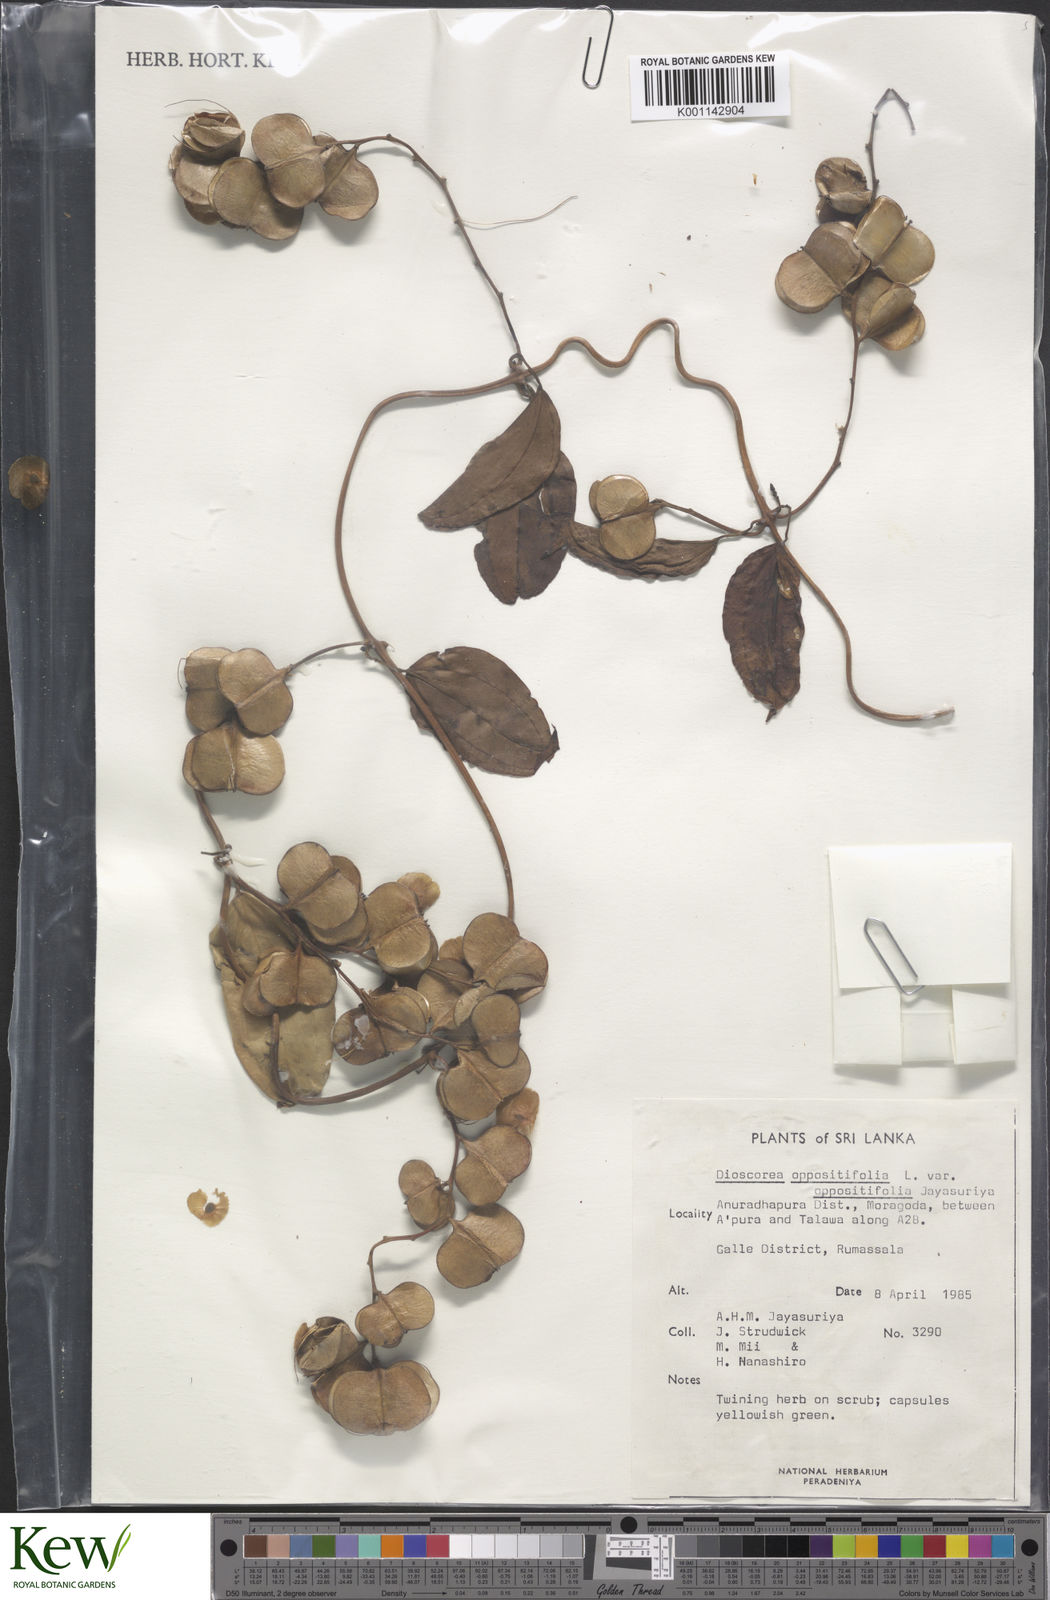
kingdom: Plantae
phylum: Tracheophyta
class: Liliopsida
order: Dioscoreales
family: Dioscoreaceae
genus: Dioscorea
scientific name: Dioscorea oppositifolia
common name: Chinese yam
